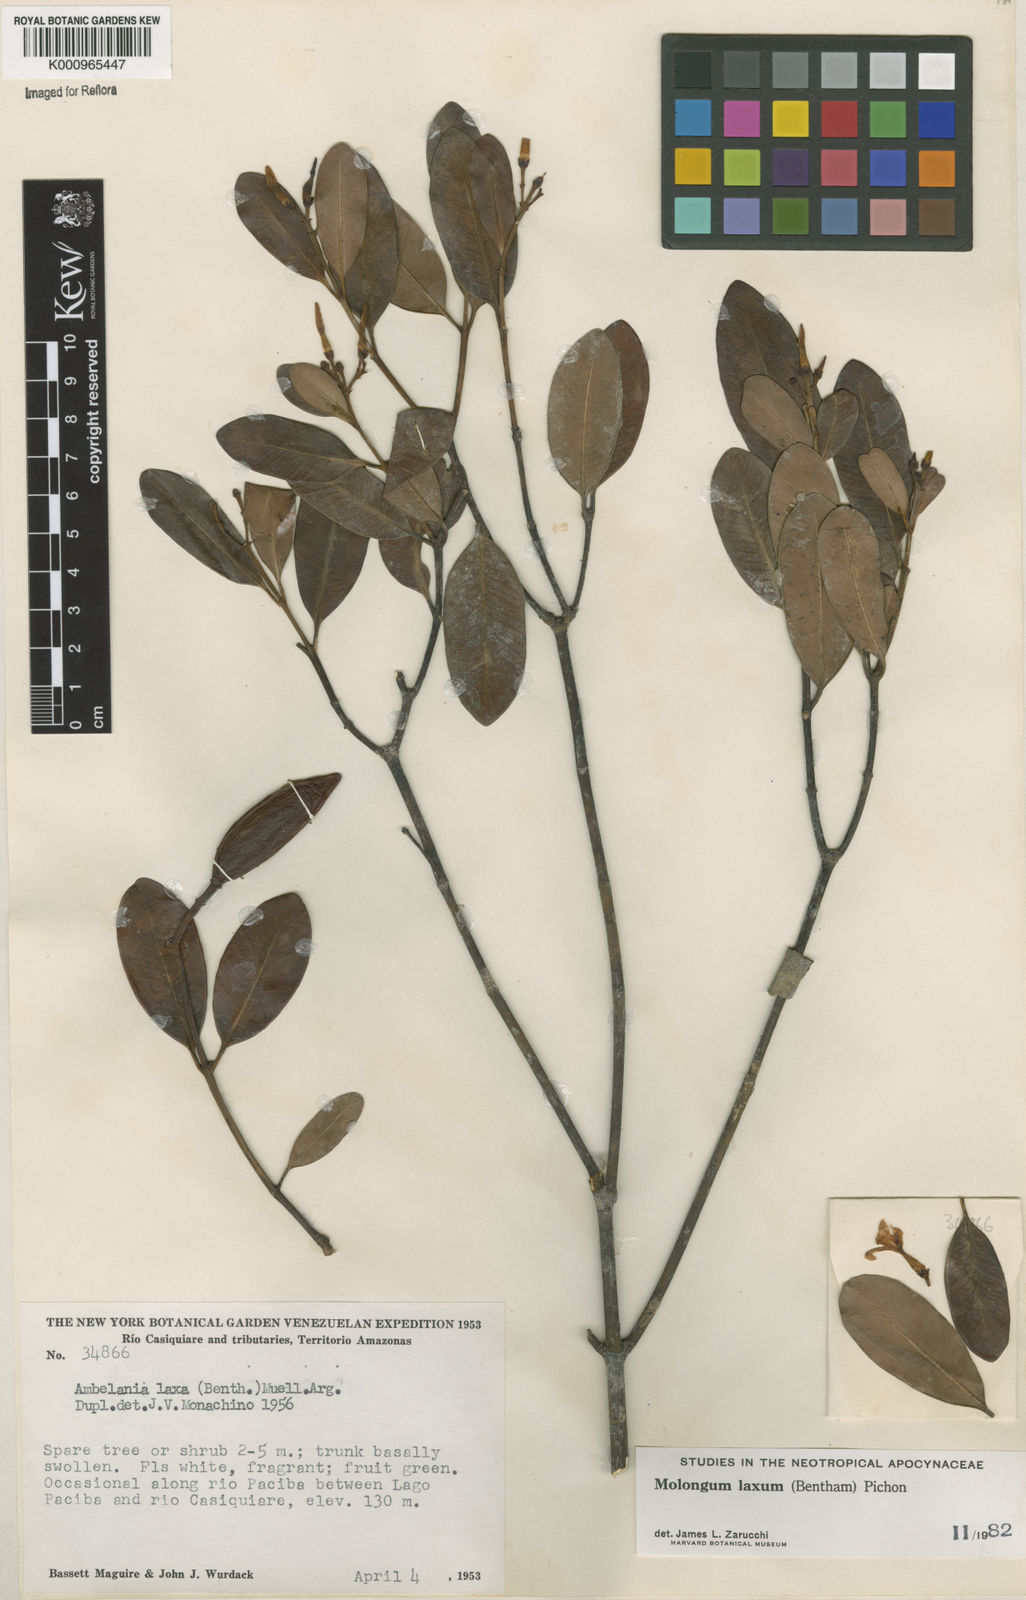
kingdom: Plantae
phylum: Tracheophyta
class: Magnoliopsida
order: Gentianales
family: Apocynaceae
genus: Molongum
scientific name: Molongum laxum
